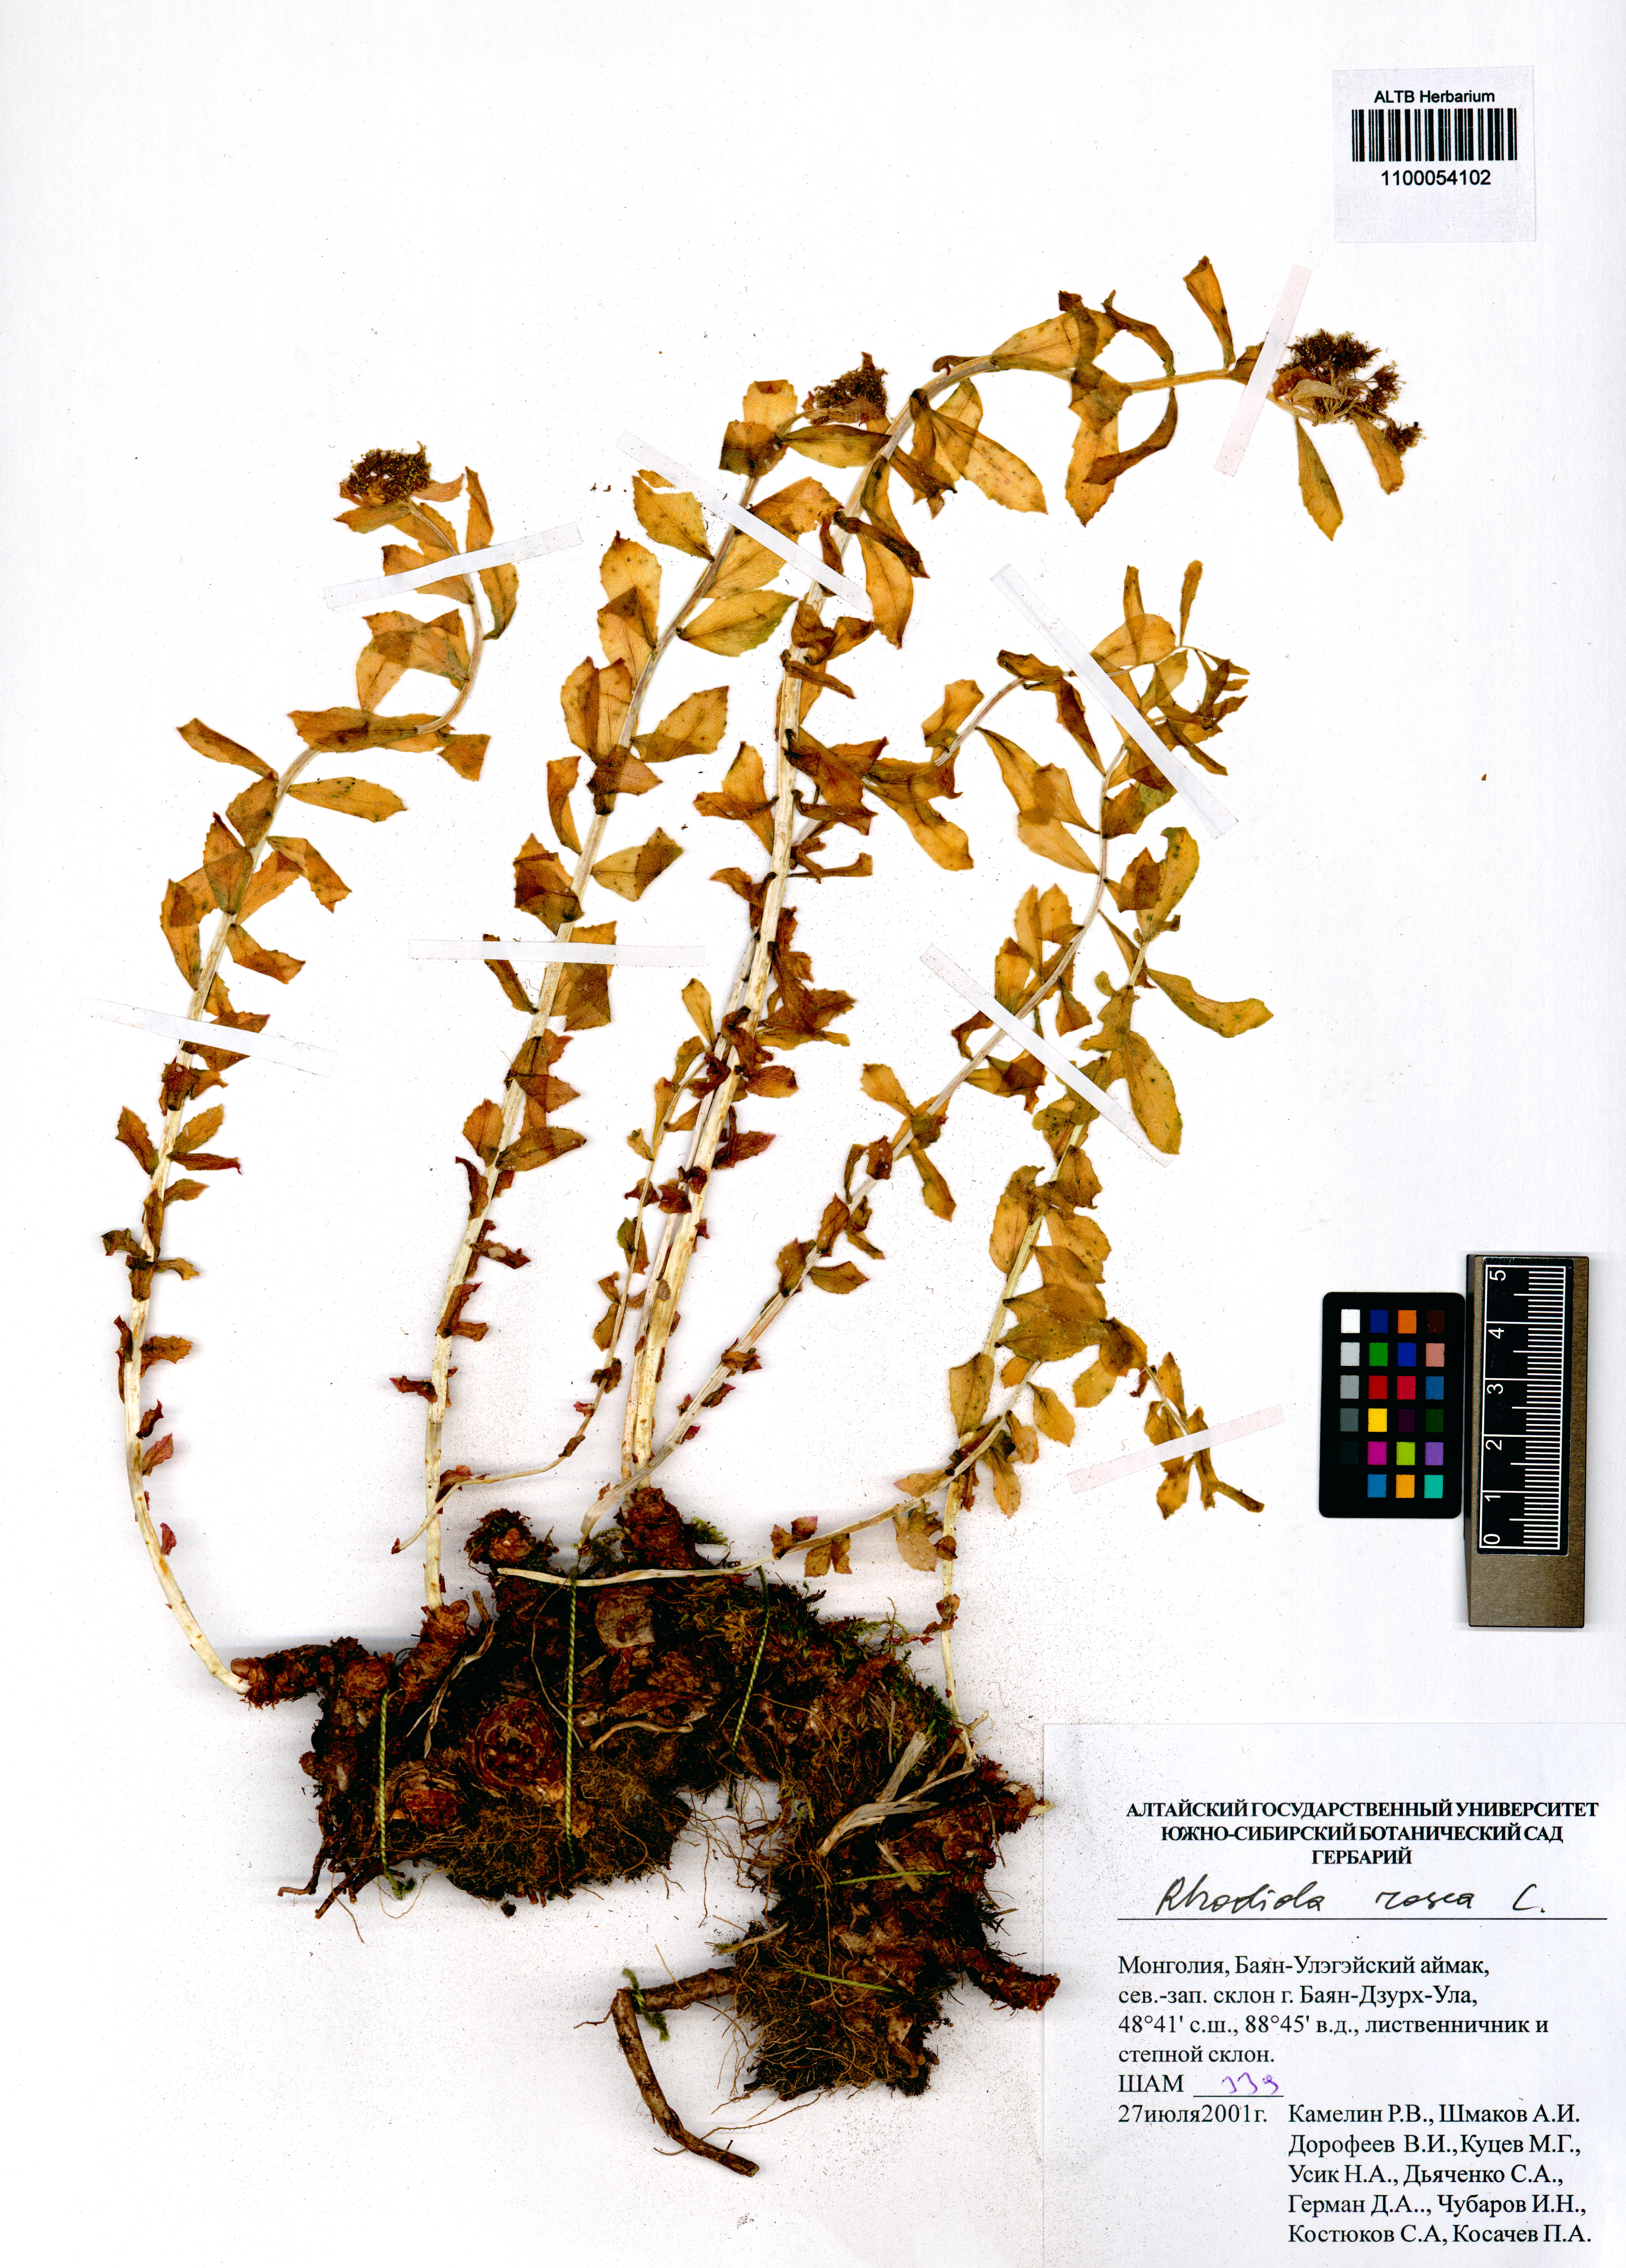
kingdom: Plantae
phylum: Tracheophyta
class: Magnoliopsida
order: Saxifragales
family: Crassulaceae
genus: Rhodiola
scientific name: Rhodiola rosea
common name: Roseroot
